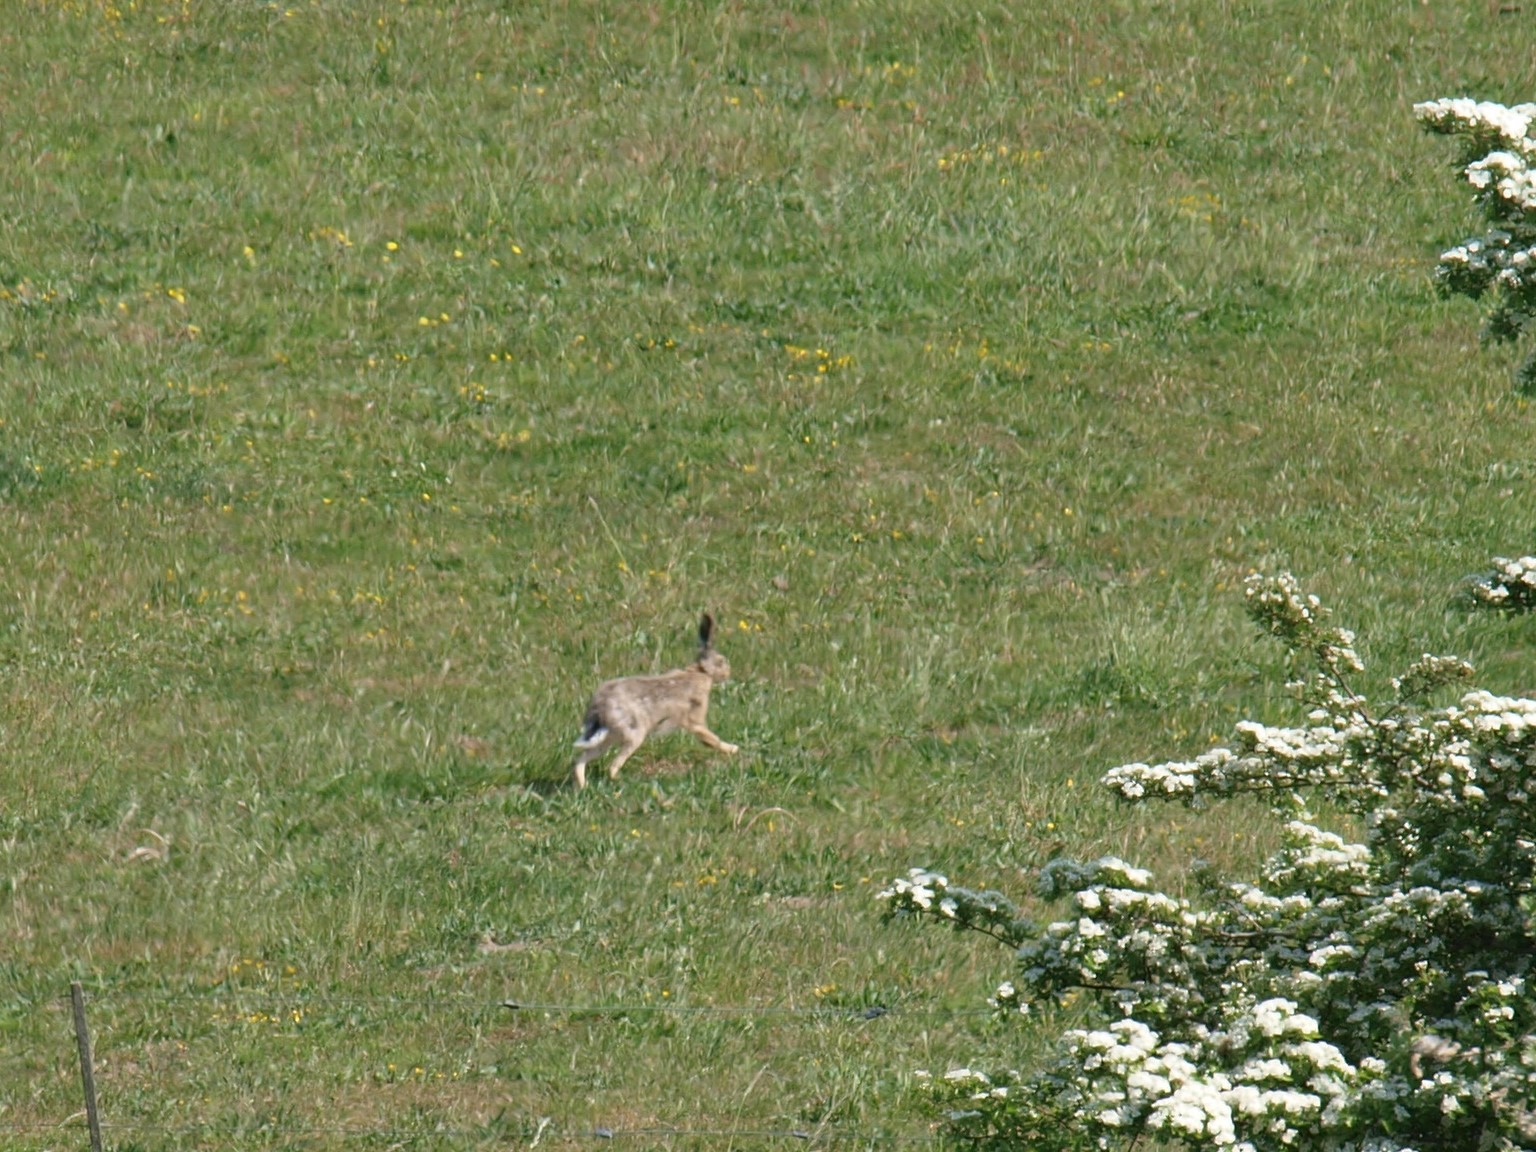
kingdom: Animalia
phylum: Chordata
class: Mammalia
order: Lagomorpha
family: Leporidae
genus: Lepus
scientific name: Lepus europaeus
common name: Hare
